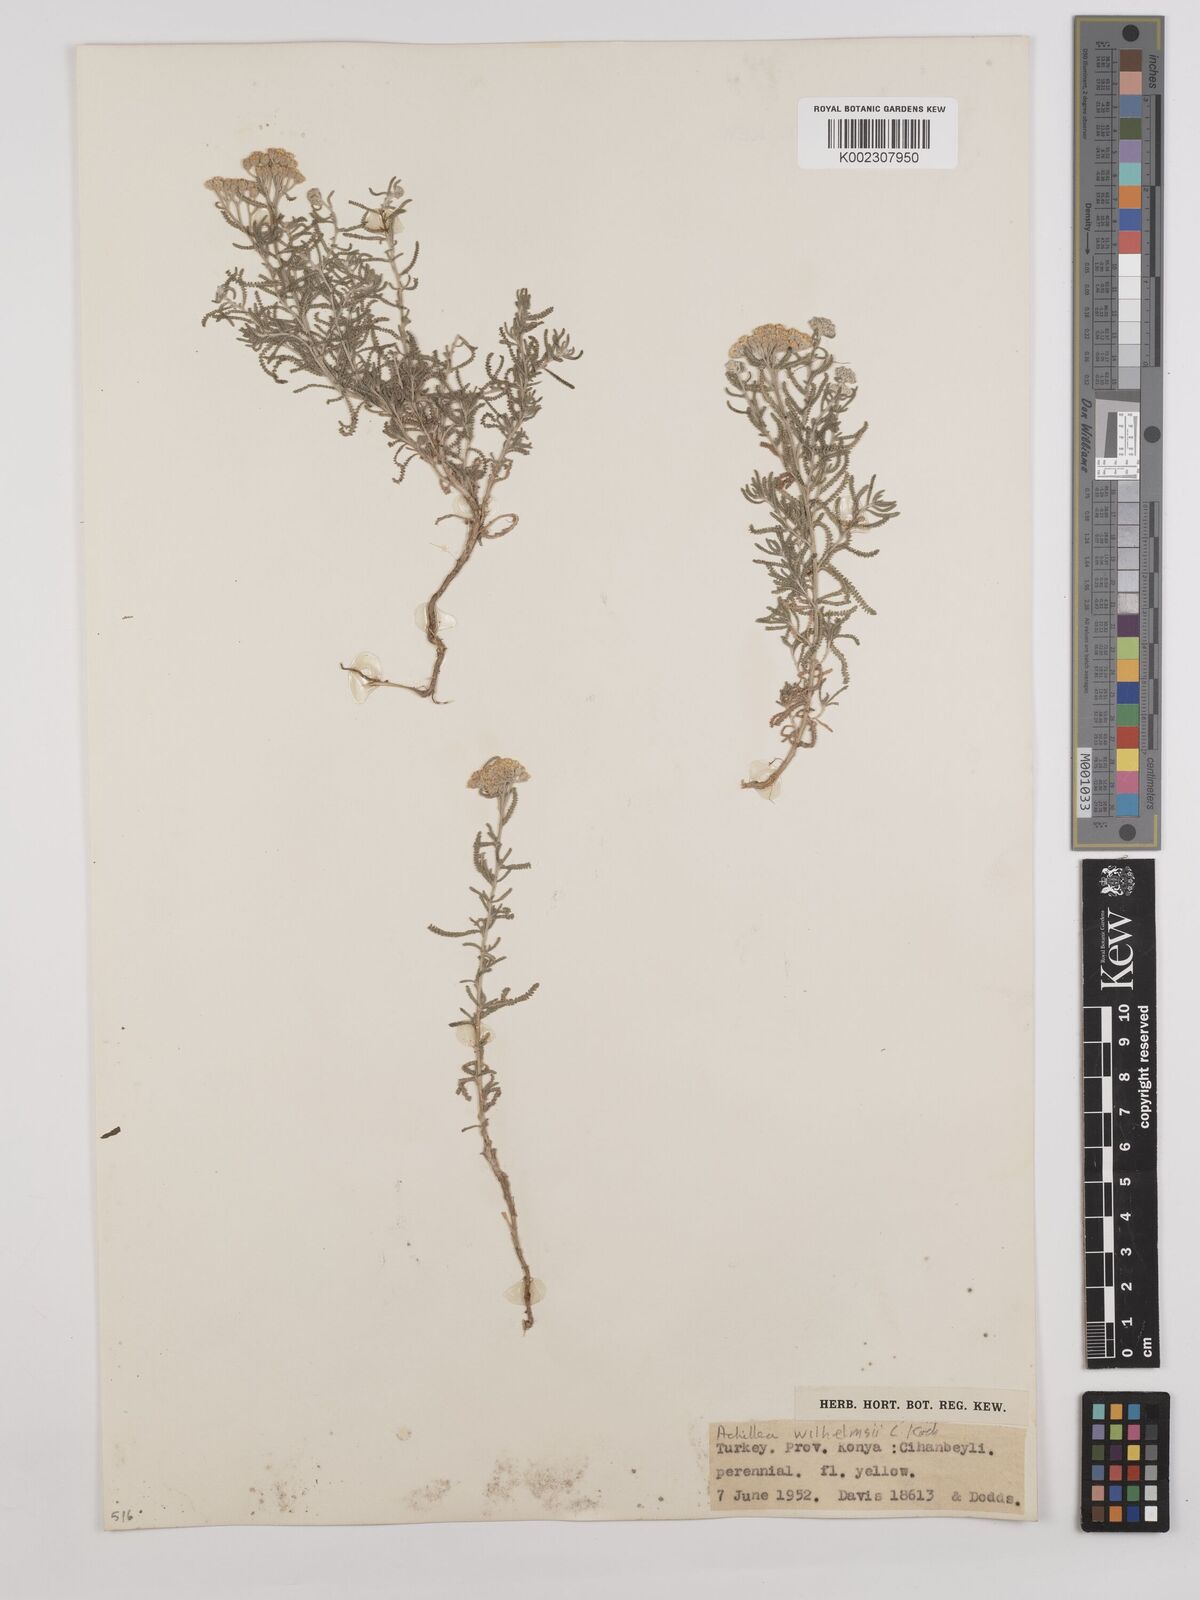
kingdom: Plantae
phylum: Tracheophyta
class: Magnoliopsida
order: Asterales
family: Asteraceae
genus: Achillea
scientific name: Achillea tenuifolia
